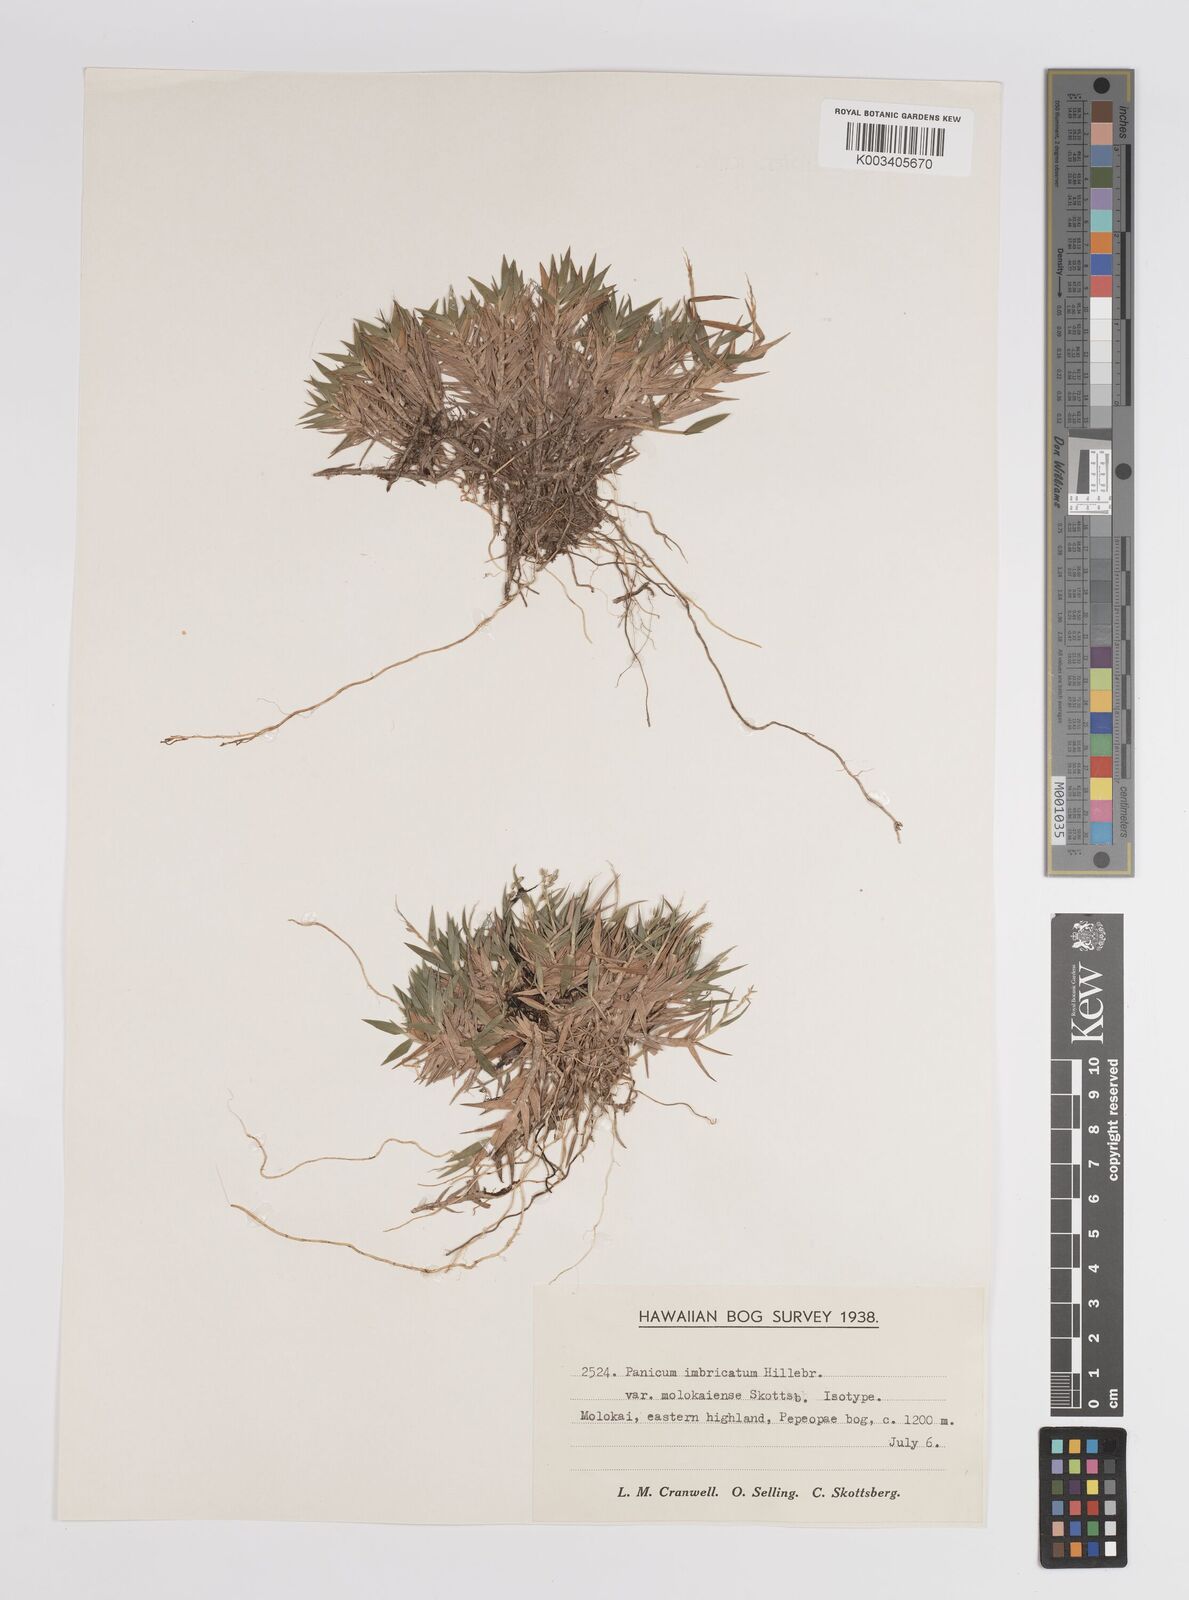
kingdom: Plantae
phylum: Tracheophyta
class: Liliopsida
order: Poales
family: Poaceae
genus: Dichanthelium
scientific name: Dichanthelium hillebrandianum
